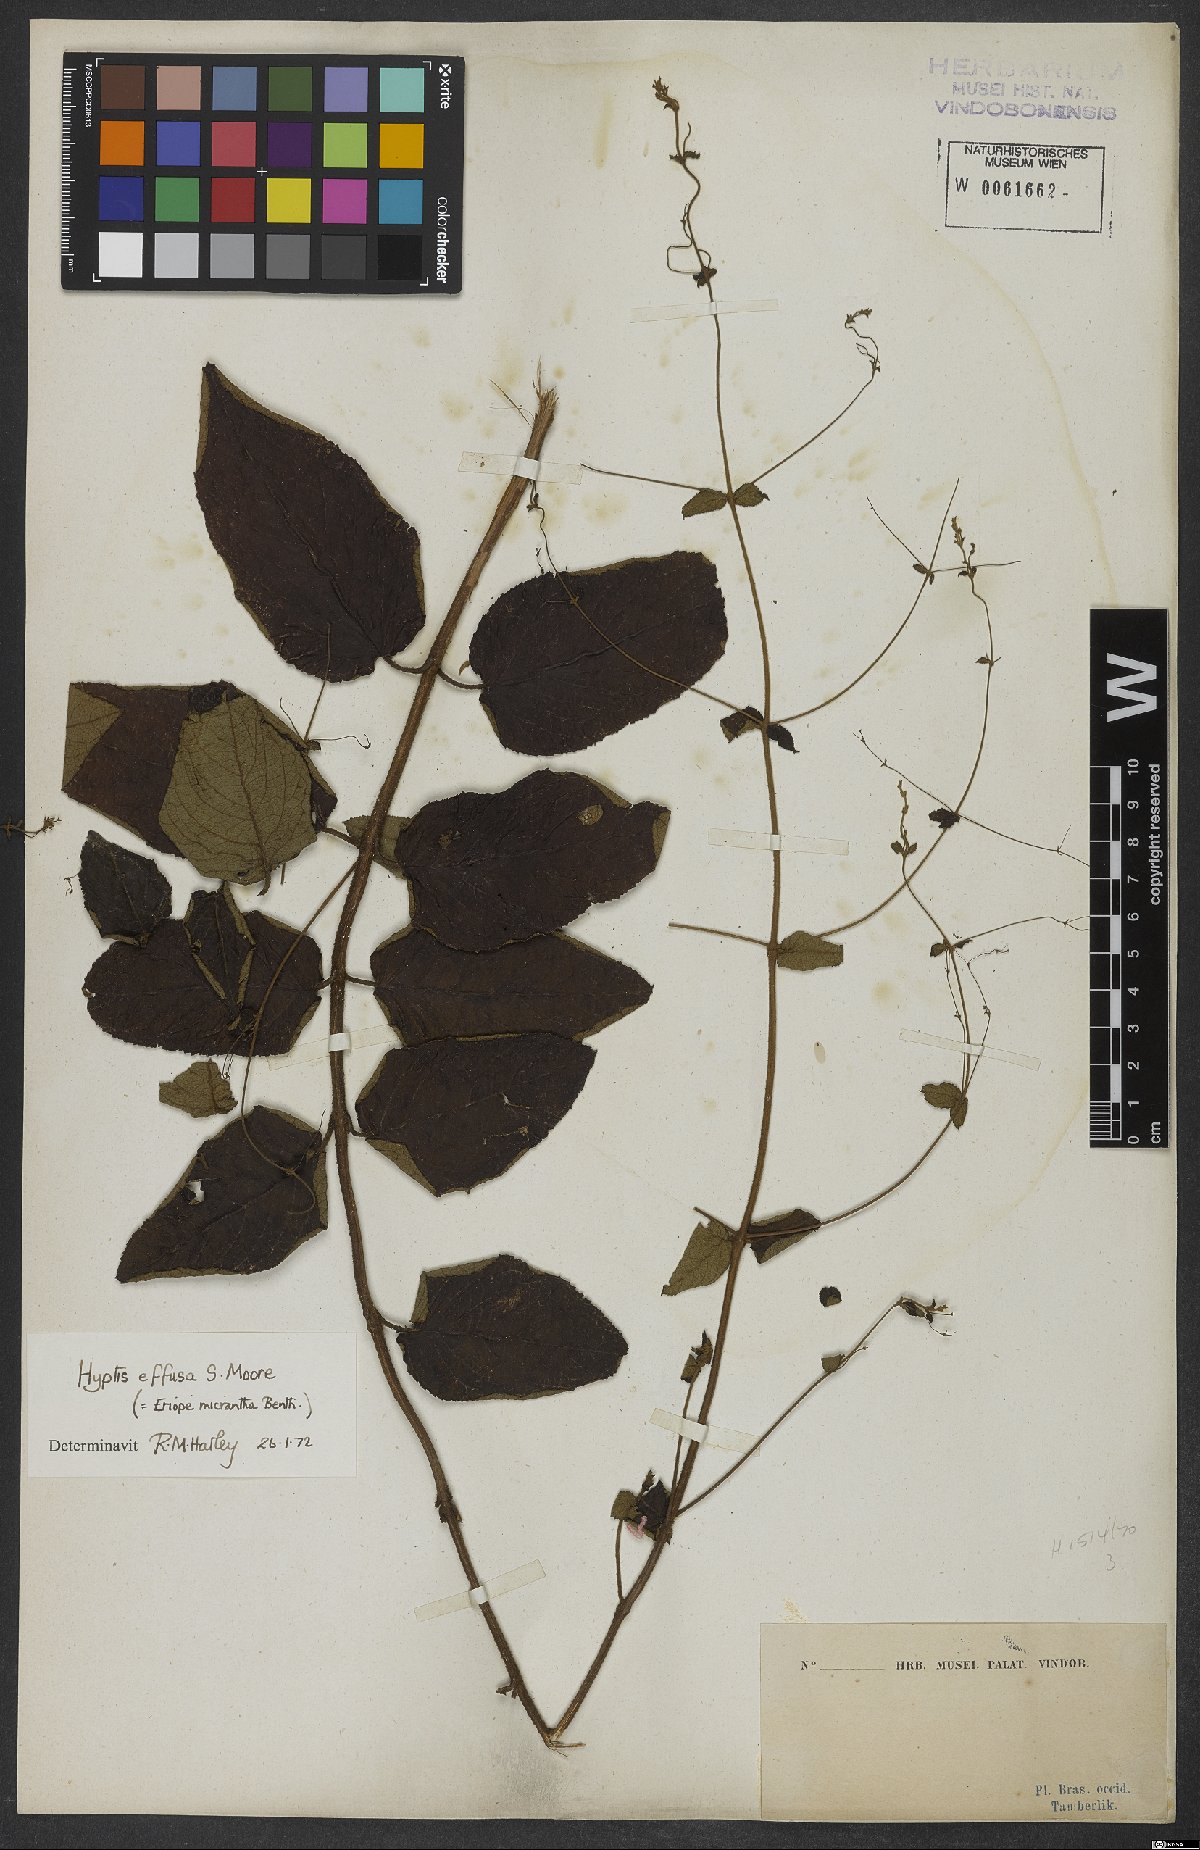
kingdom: Plantae
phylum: Tracheophyta
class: Magnoliopsida
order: Lamiales
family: Lamiaceae
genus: Hypenia
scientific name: Hypenia micrantha
